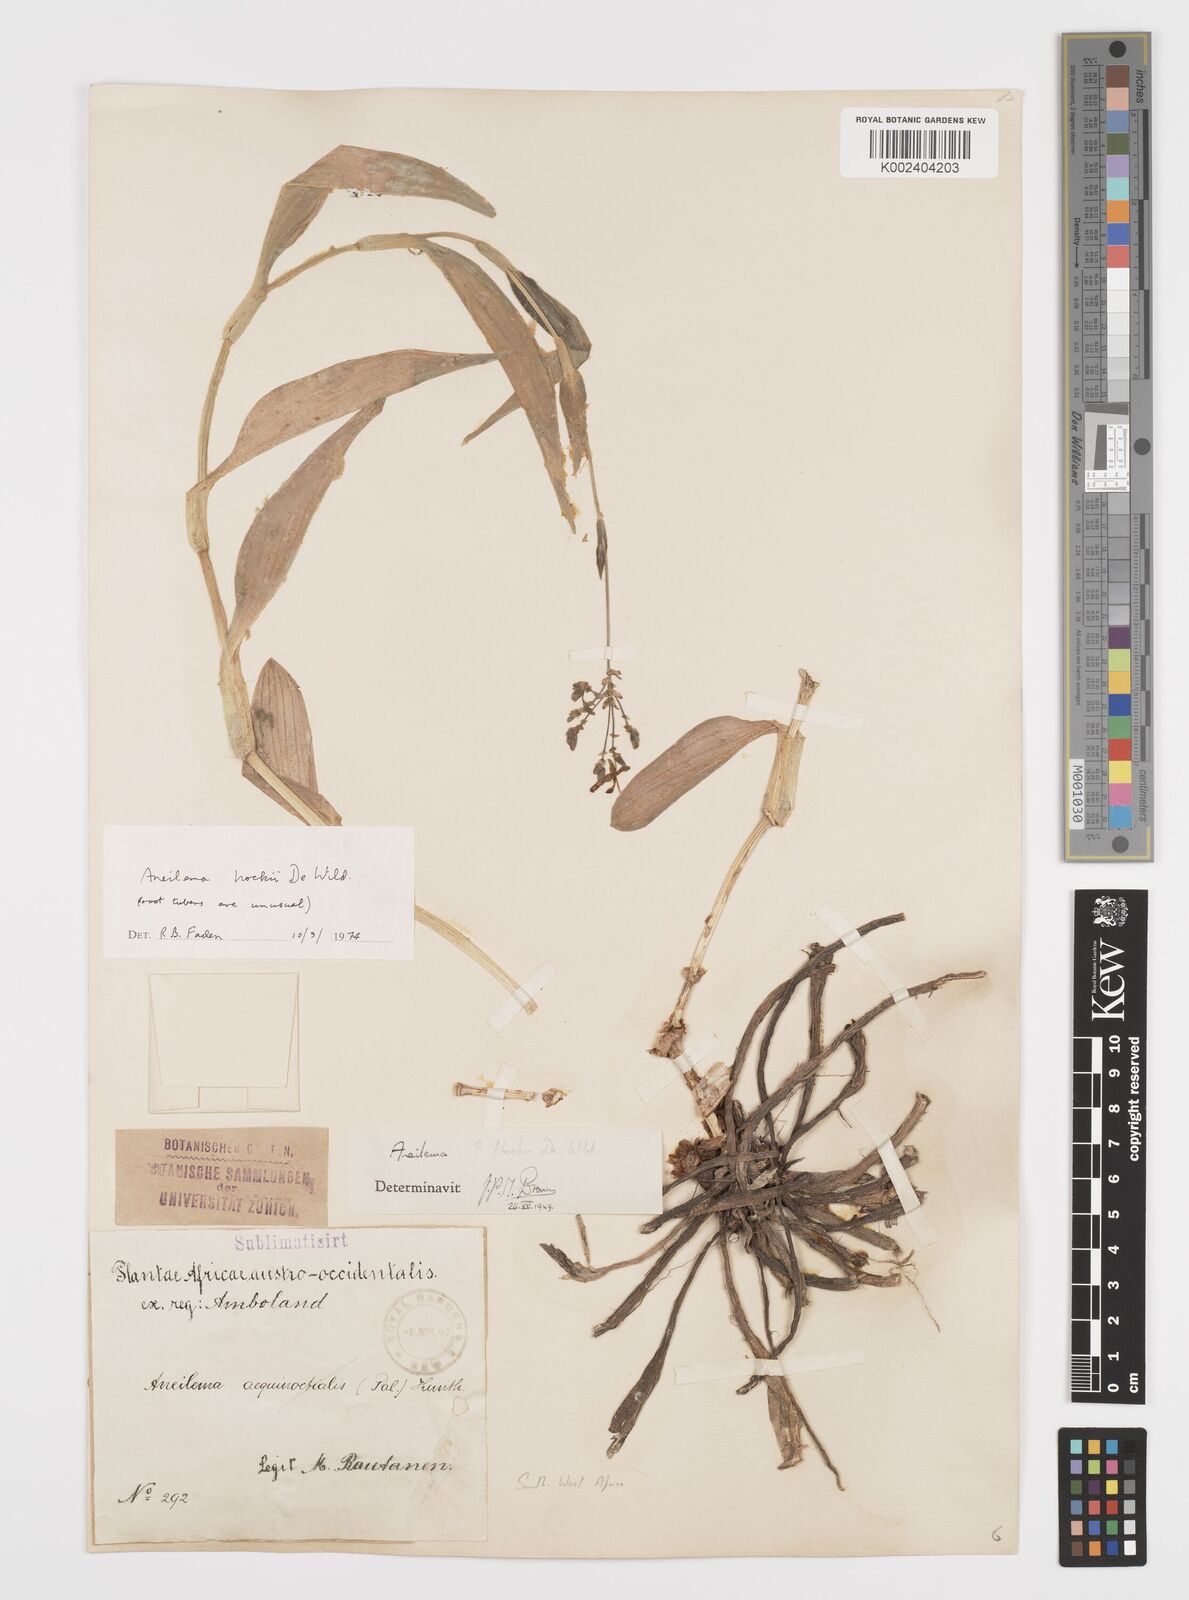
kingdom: Plantae
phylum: Tracheophyta
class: Liliopsida
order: Commelinales
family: Commelinaceae
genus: Aneilema
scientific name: Aneilema hockii
